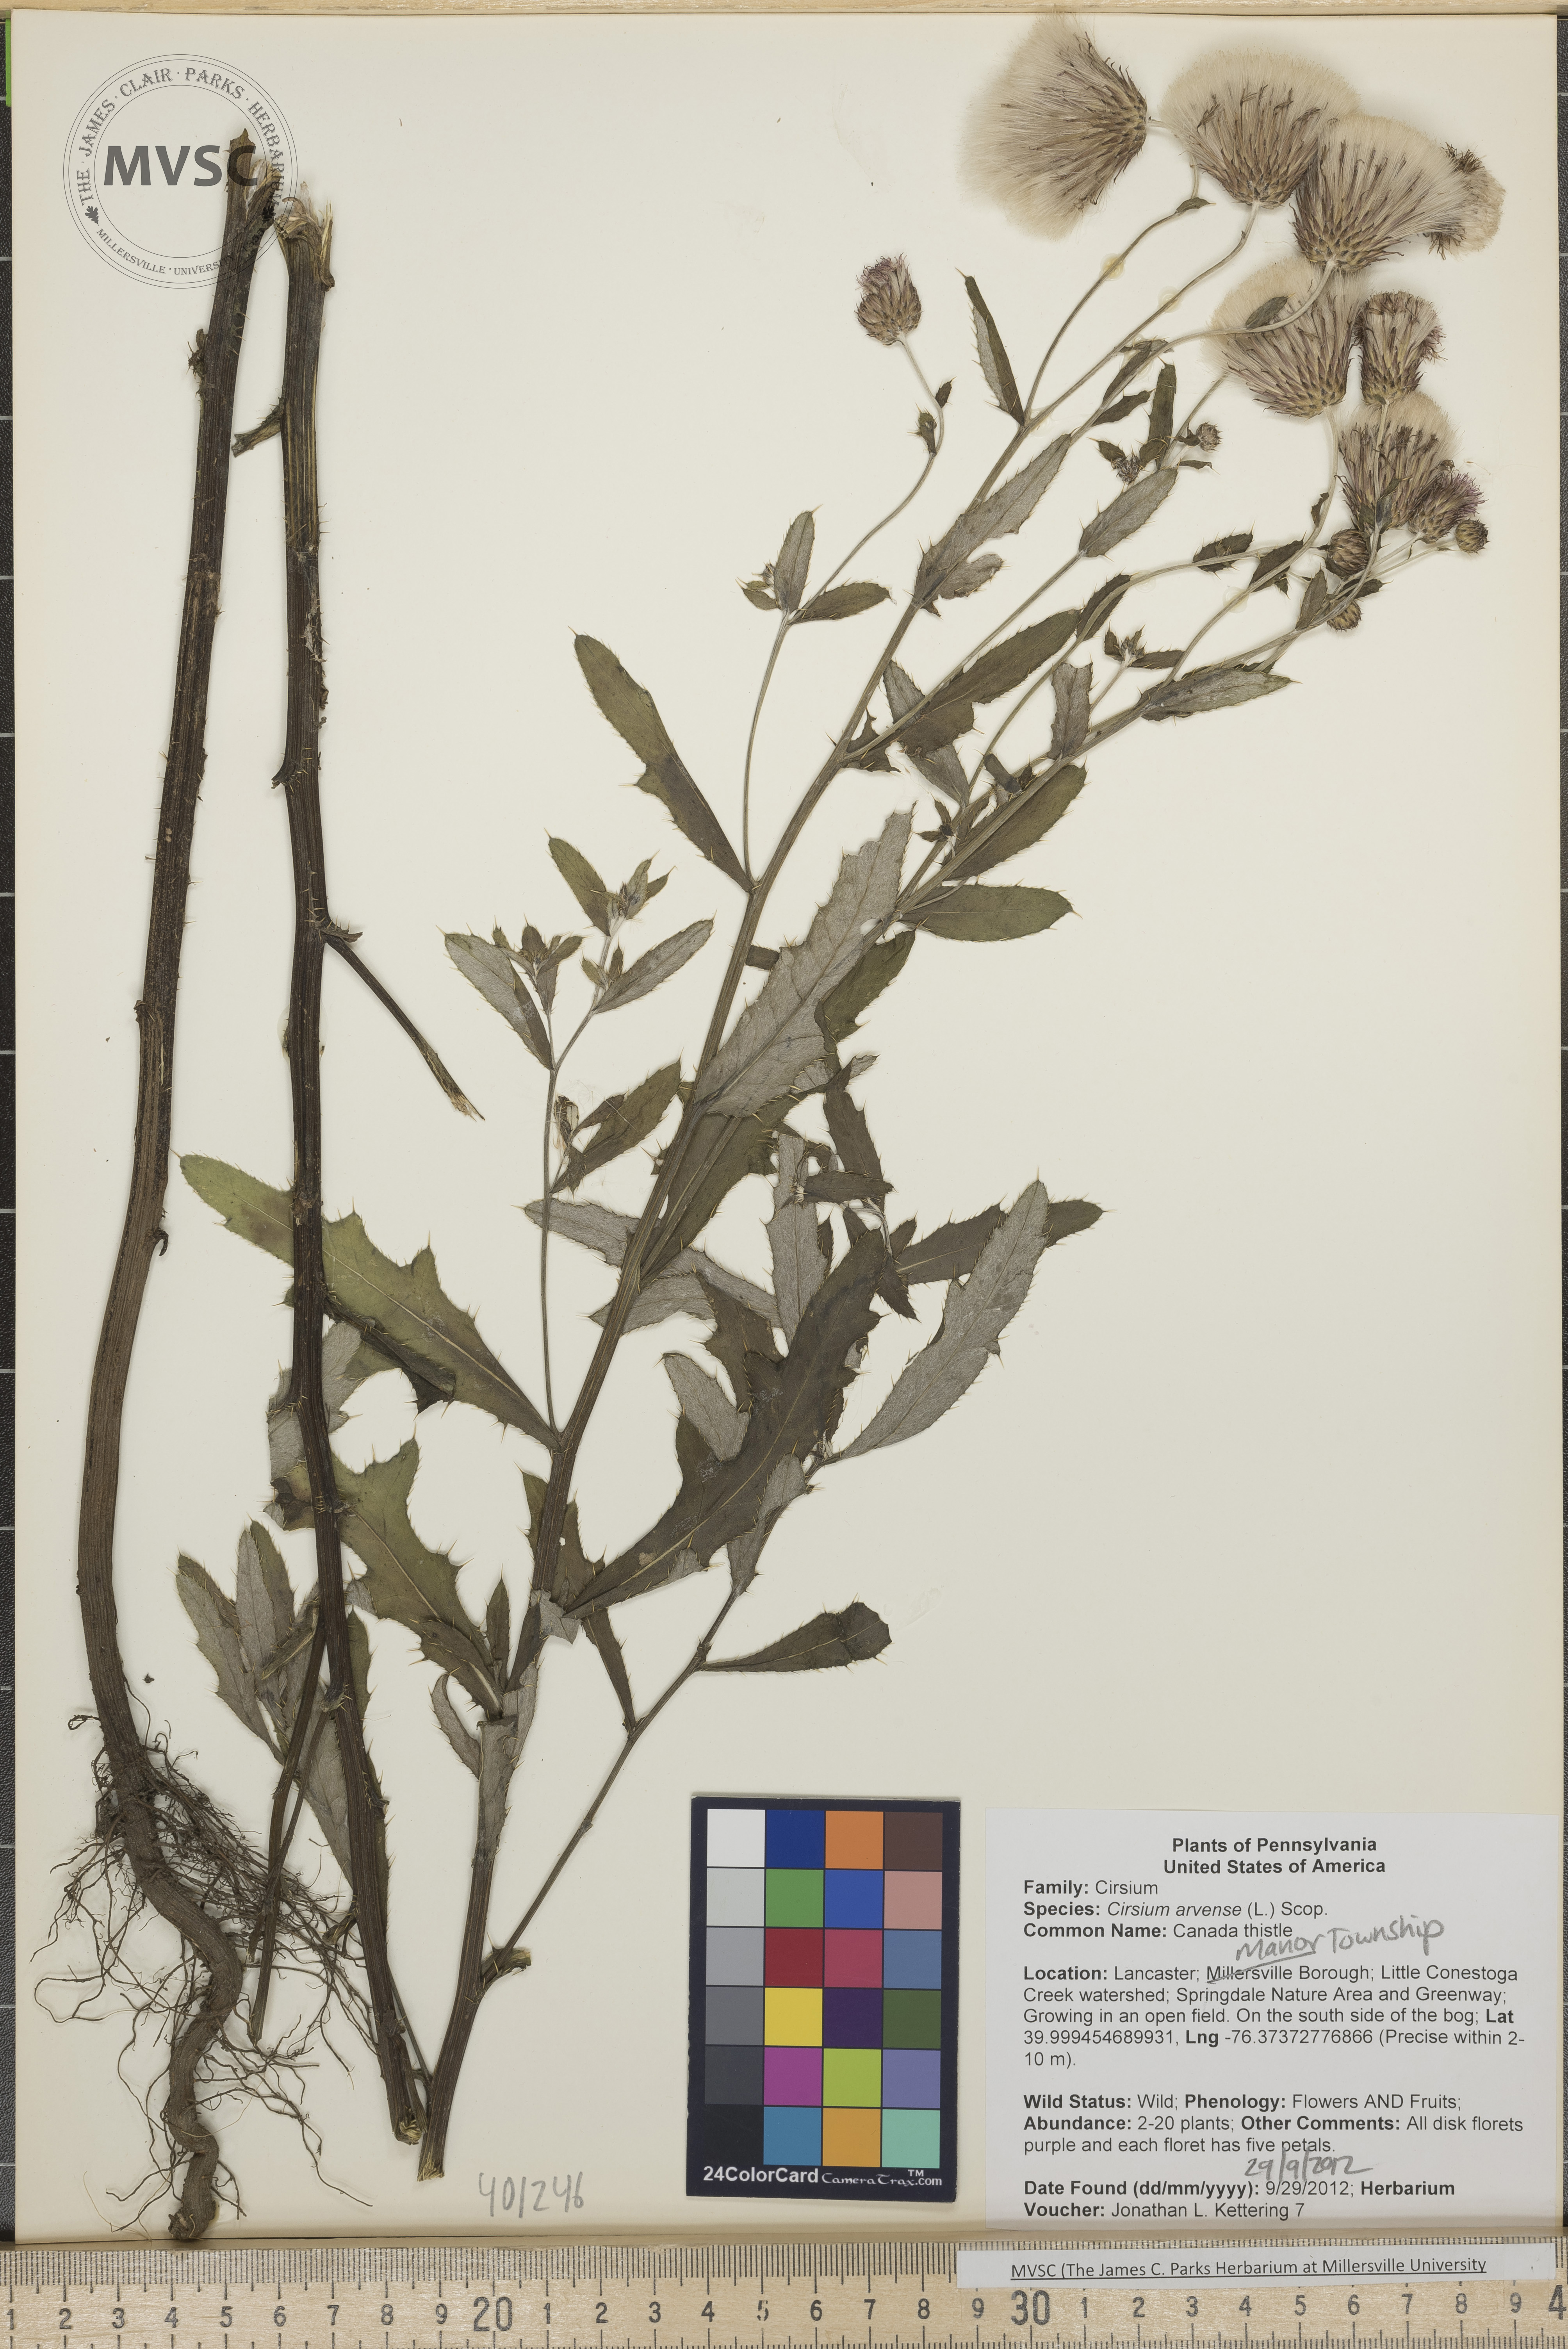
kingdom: Plantae
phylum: Tracheophyta
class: Magnoliopsida
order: Asterales
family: Asteraceae
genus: Cirsium
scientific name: Cirsium arvense
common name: Canada Thistle
